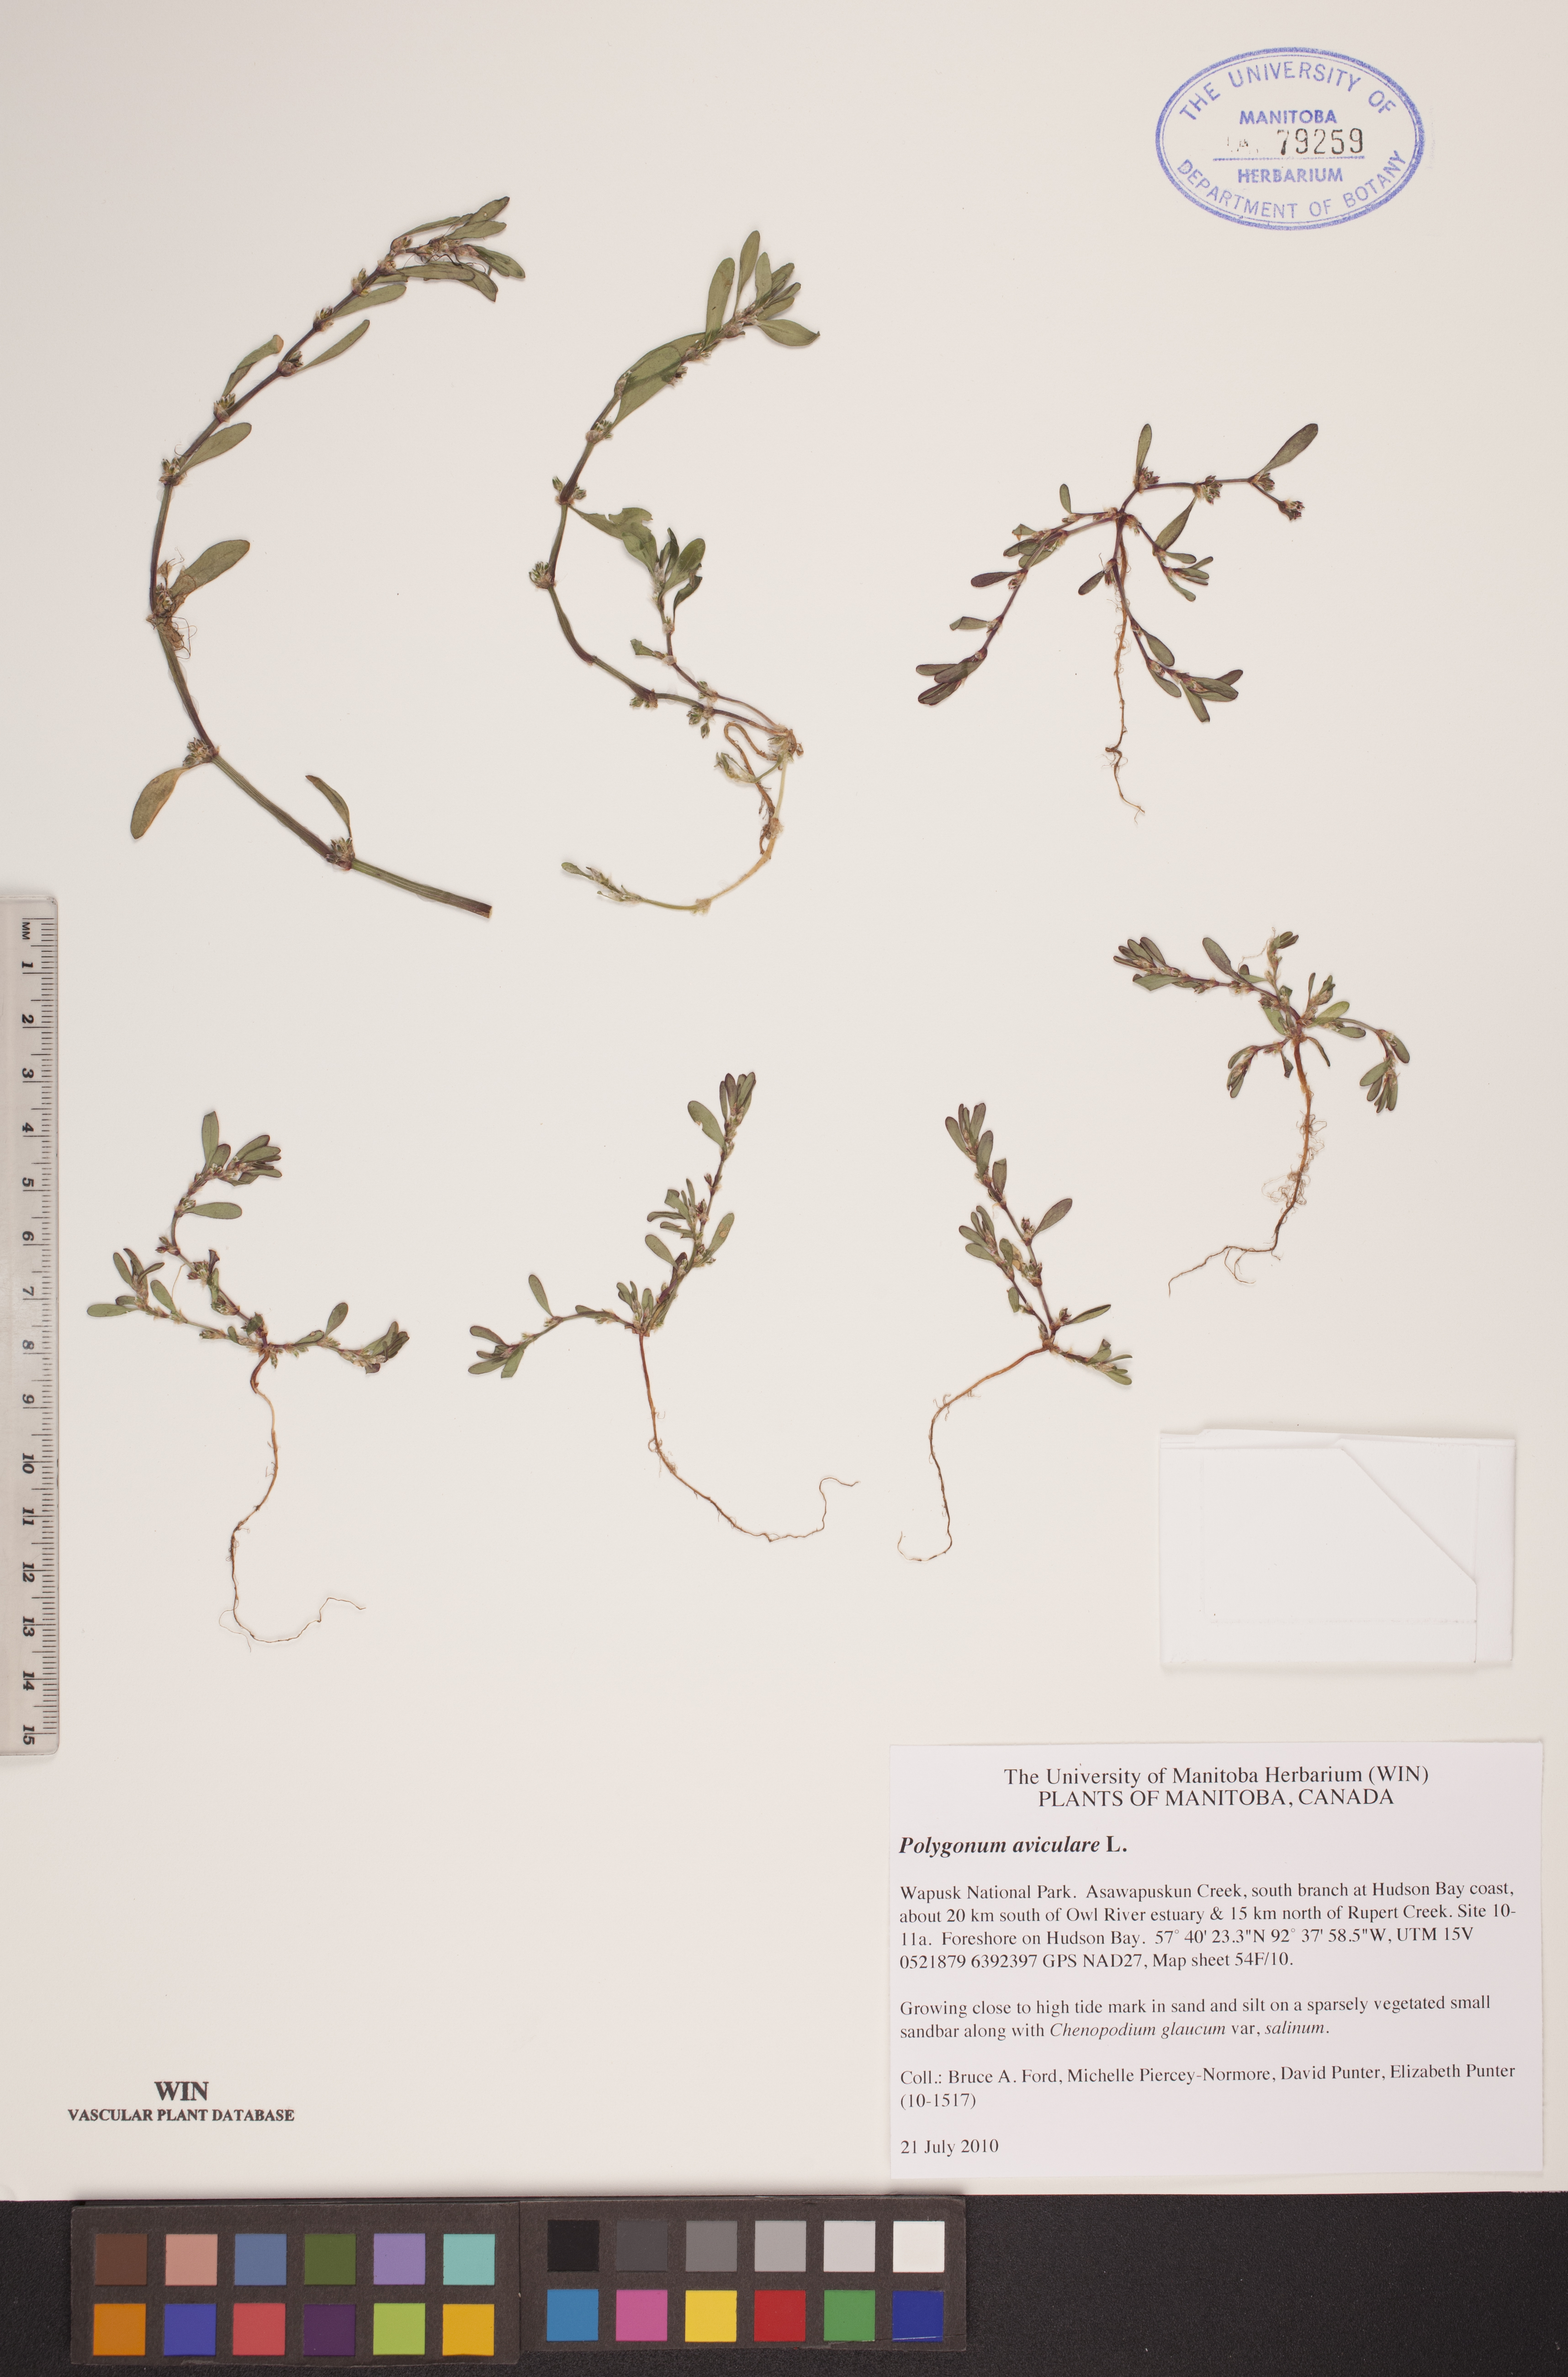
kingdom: Plantae
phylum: Tracheophyta
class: Magnoliopsida
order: Caryophyllales
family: Polygonaceae
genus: Polygonum
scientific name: Polygonum aviculare
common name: Prostrate knotweed
